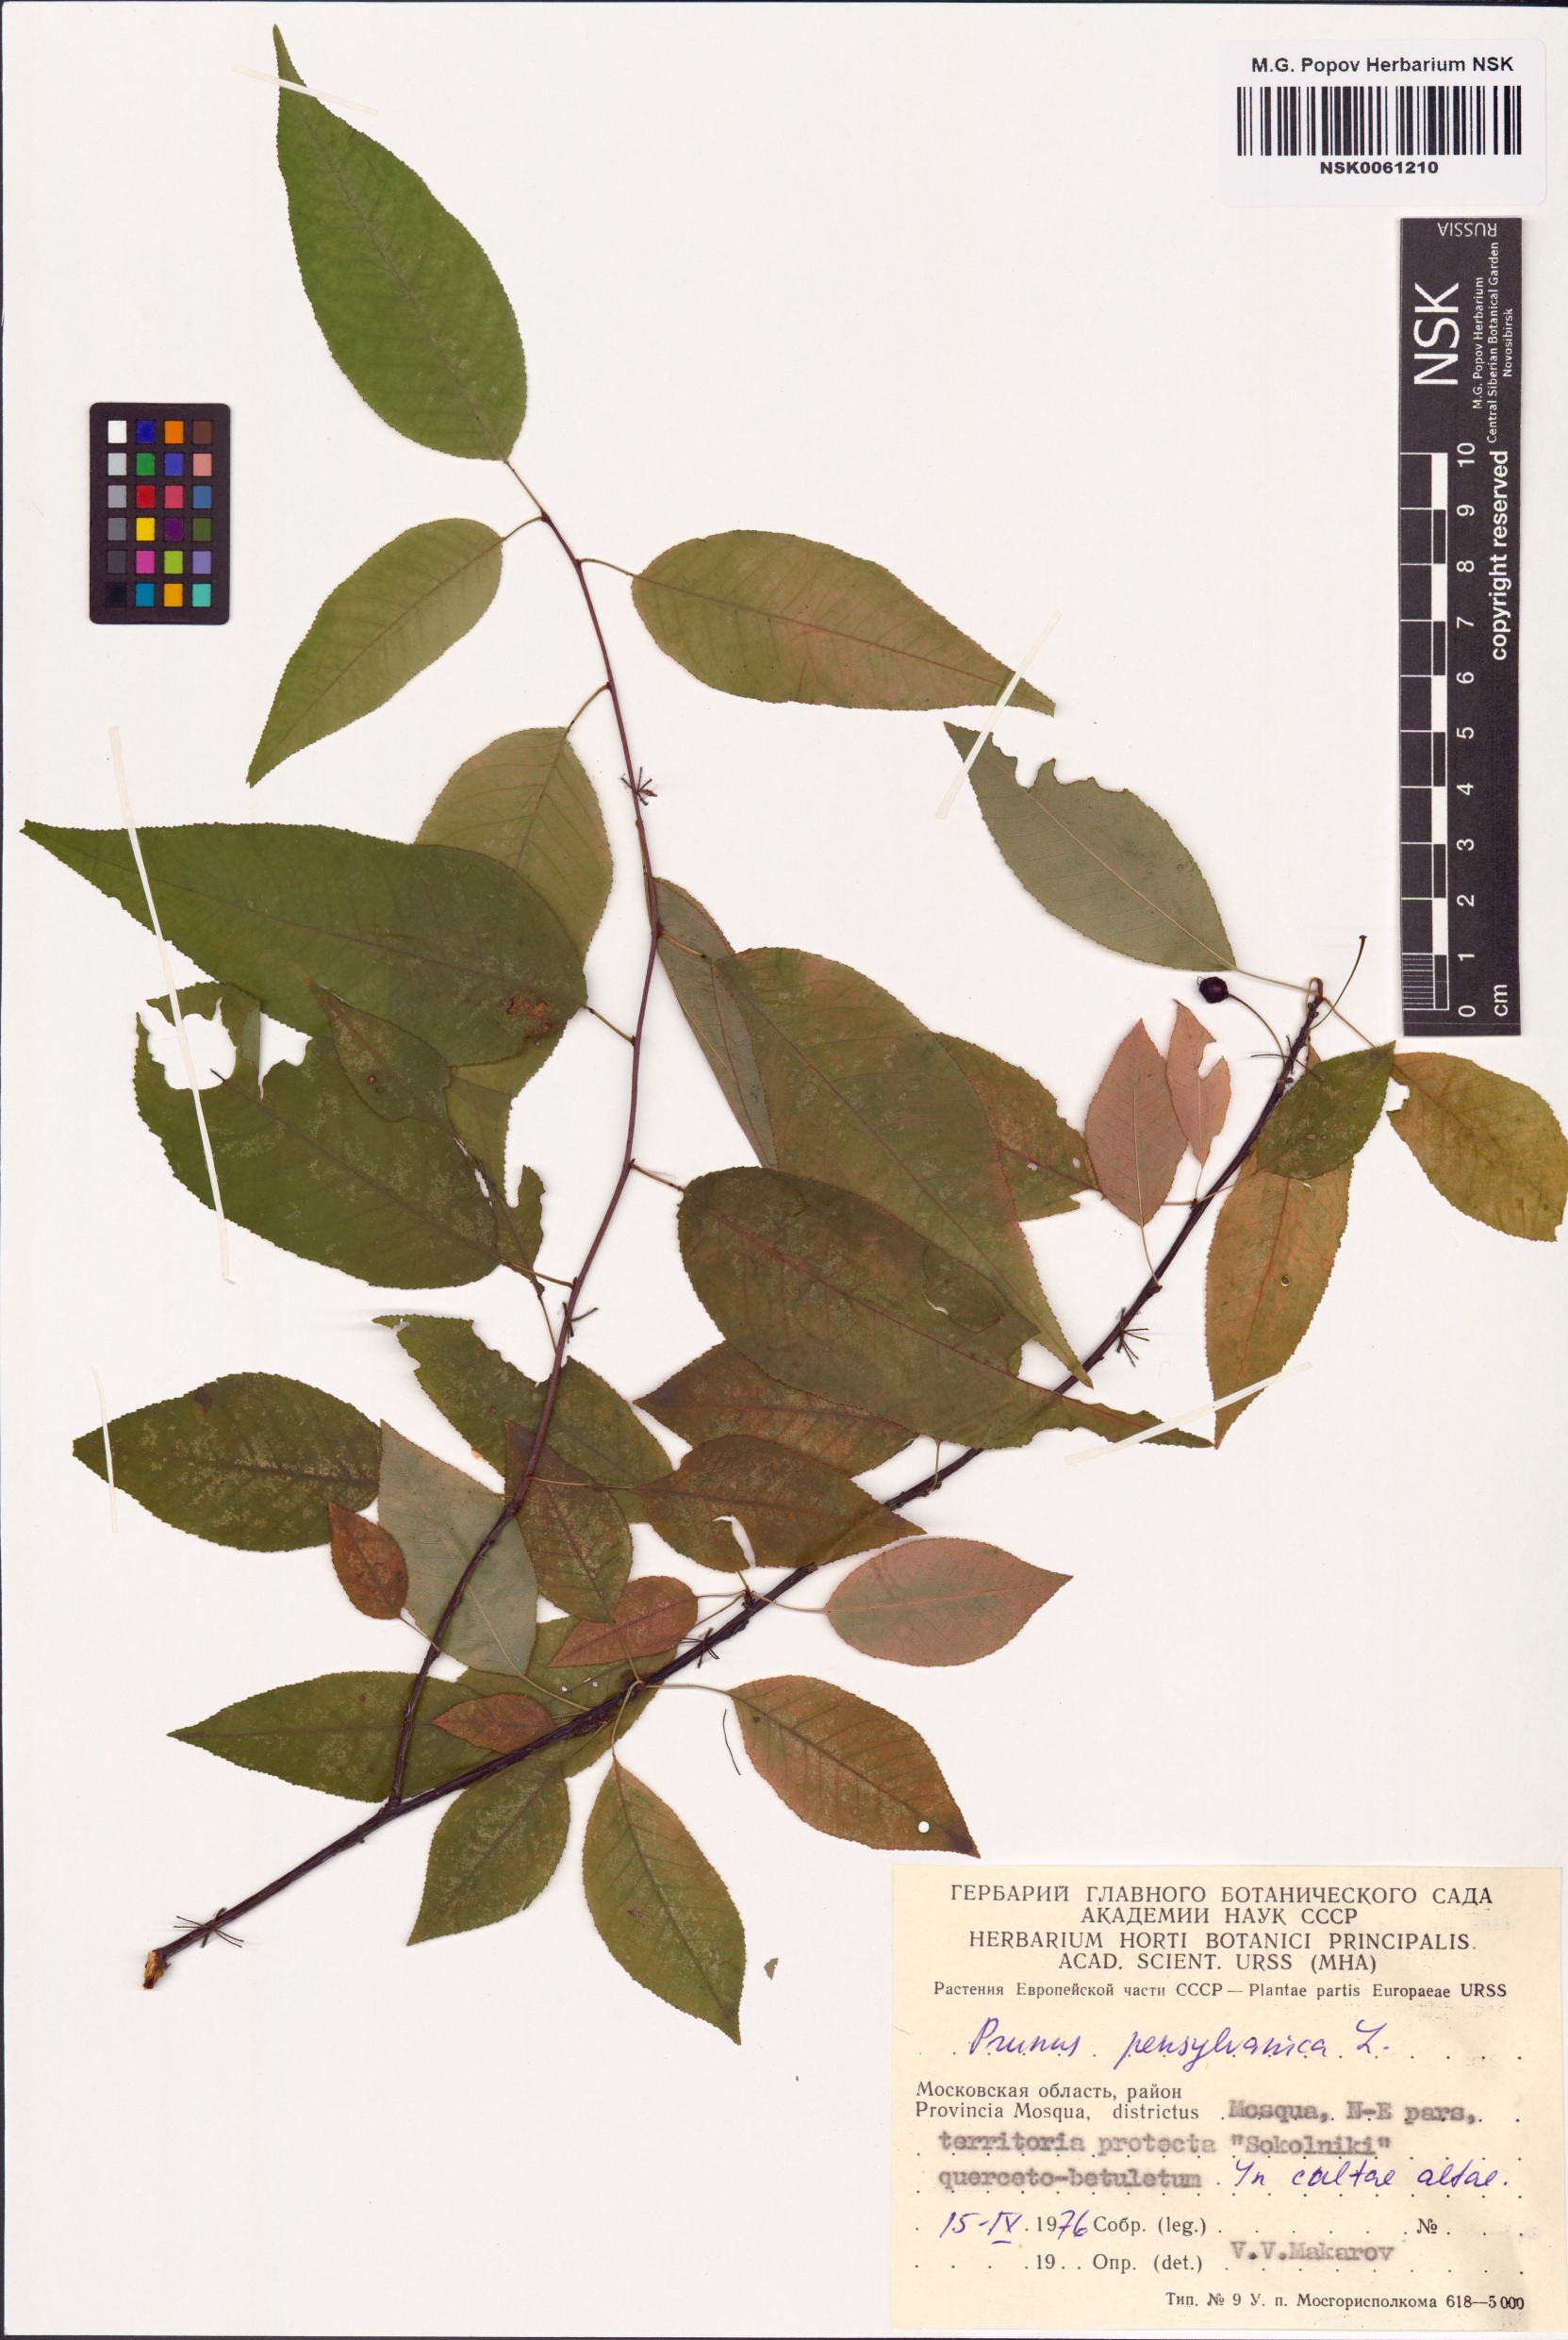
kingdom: Plantae
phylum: Tracheophyta
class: Magnoliopsida
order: Rosales
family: Rosaceae
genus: Prunus
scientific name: Prunus pensylvanica
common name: Pin cherry
